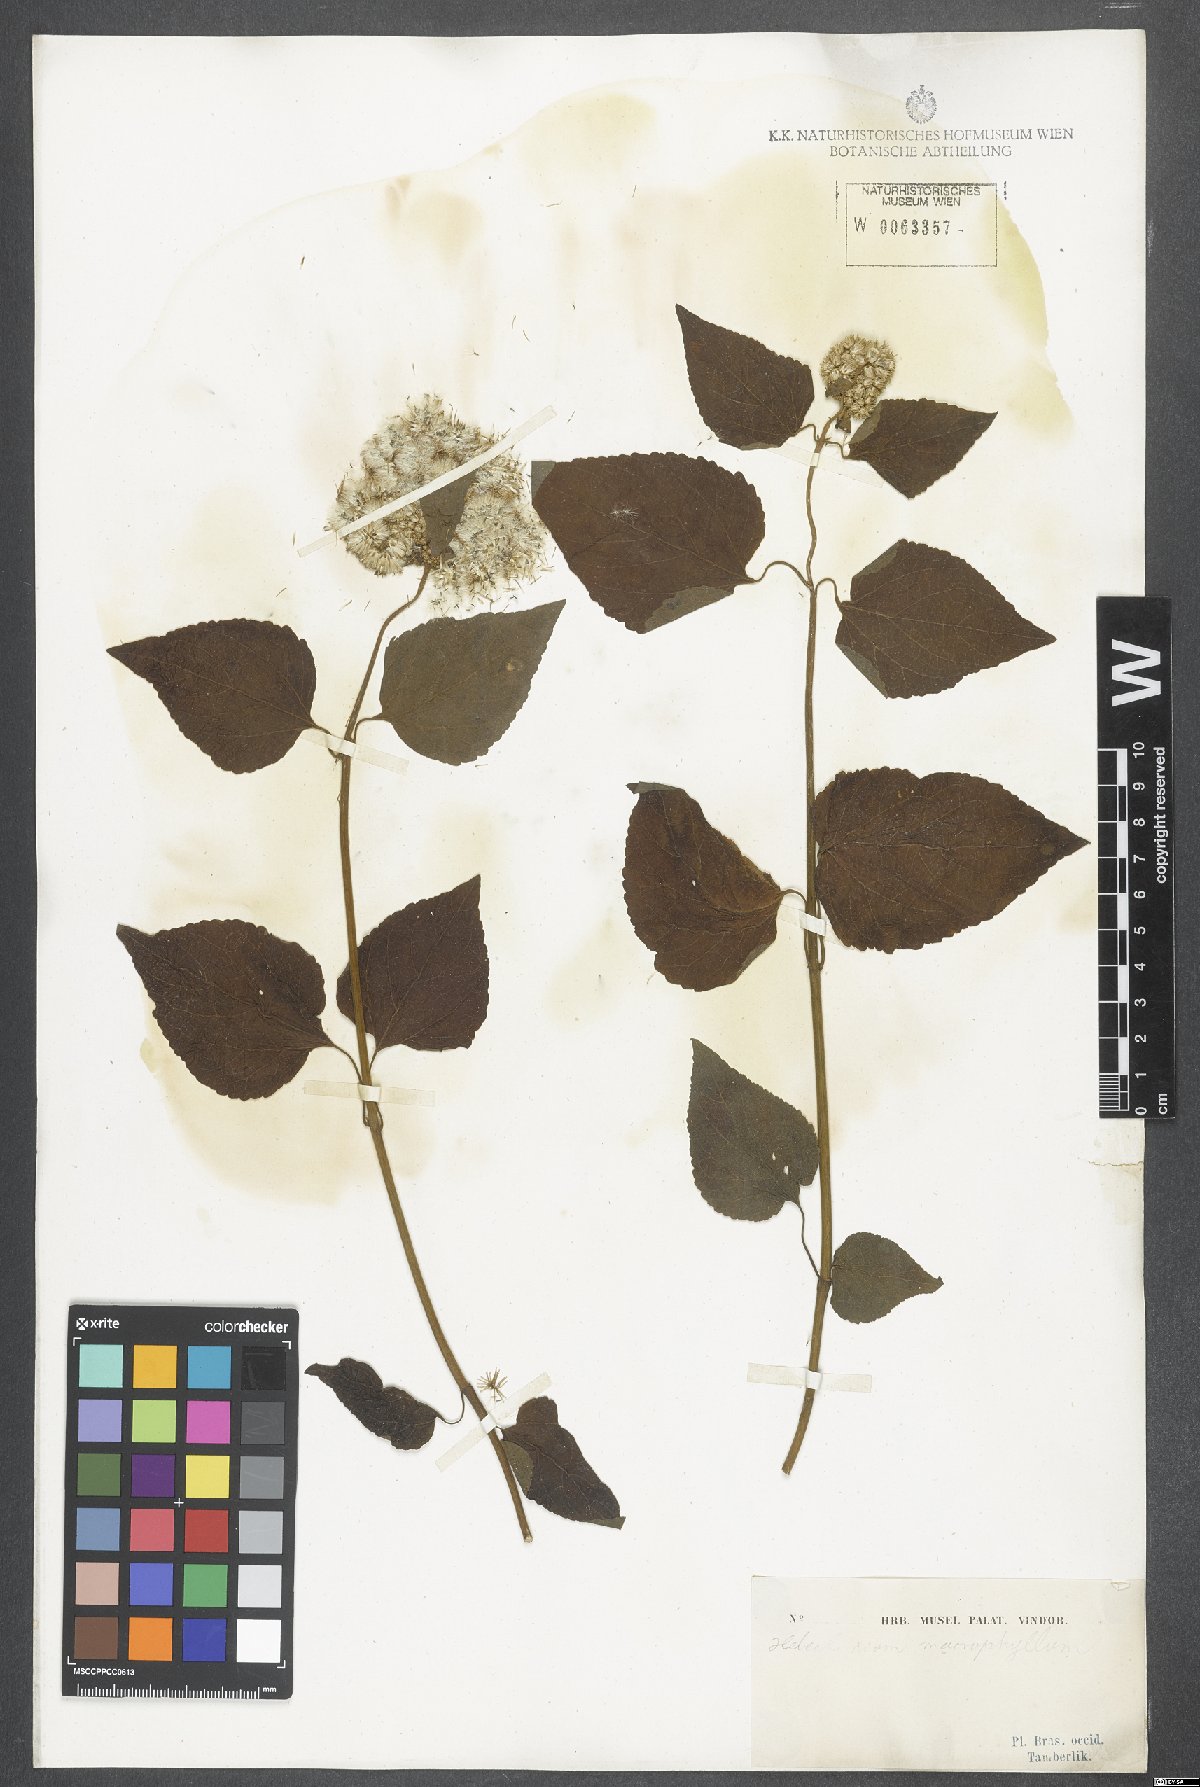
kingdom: Plantae
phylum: Tracheophyta
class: Magnoliopsida
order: Asterales
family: Asteraceae
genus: Hebeclinium
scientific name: Hebeclinium macrophyllum
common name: Largeleaf thoroughwort
